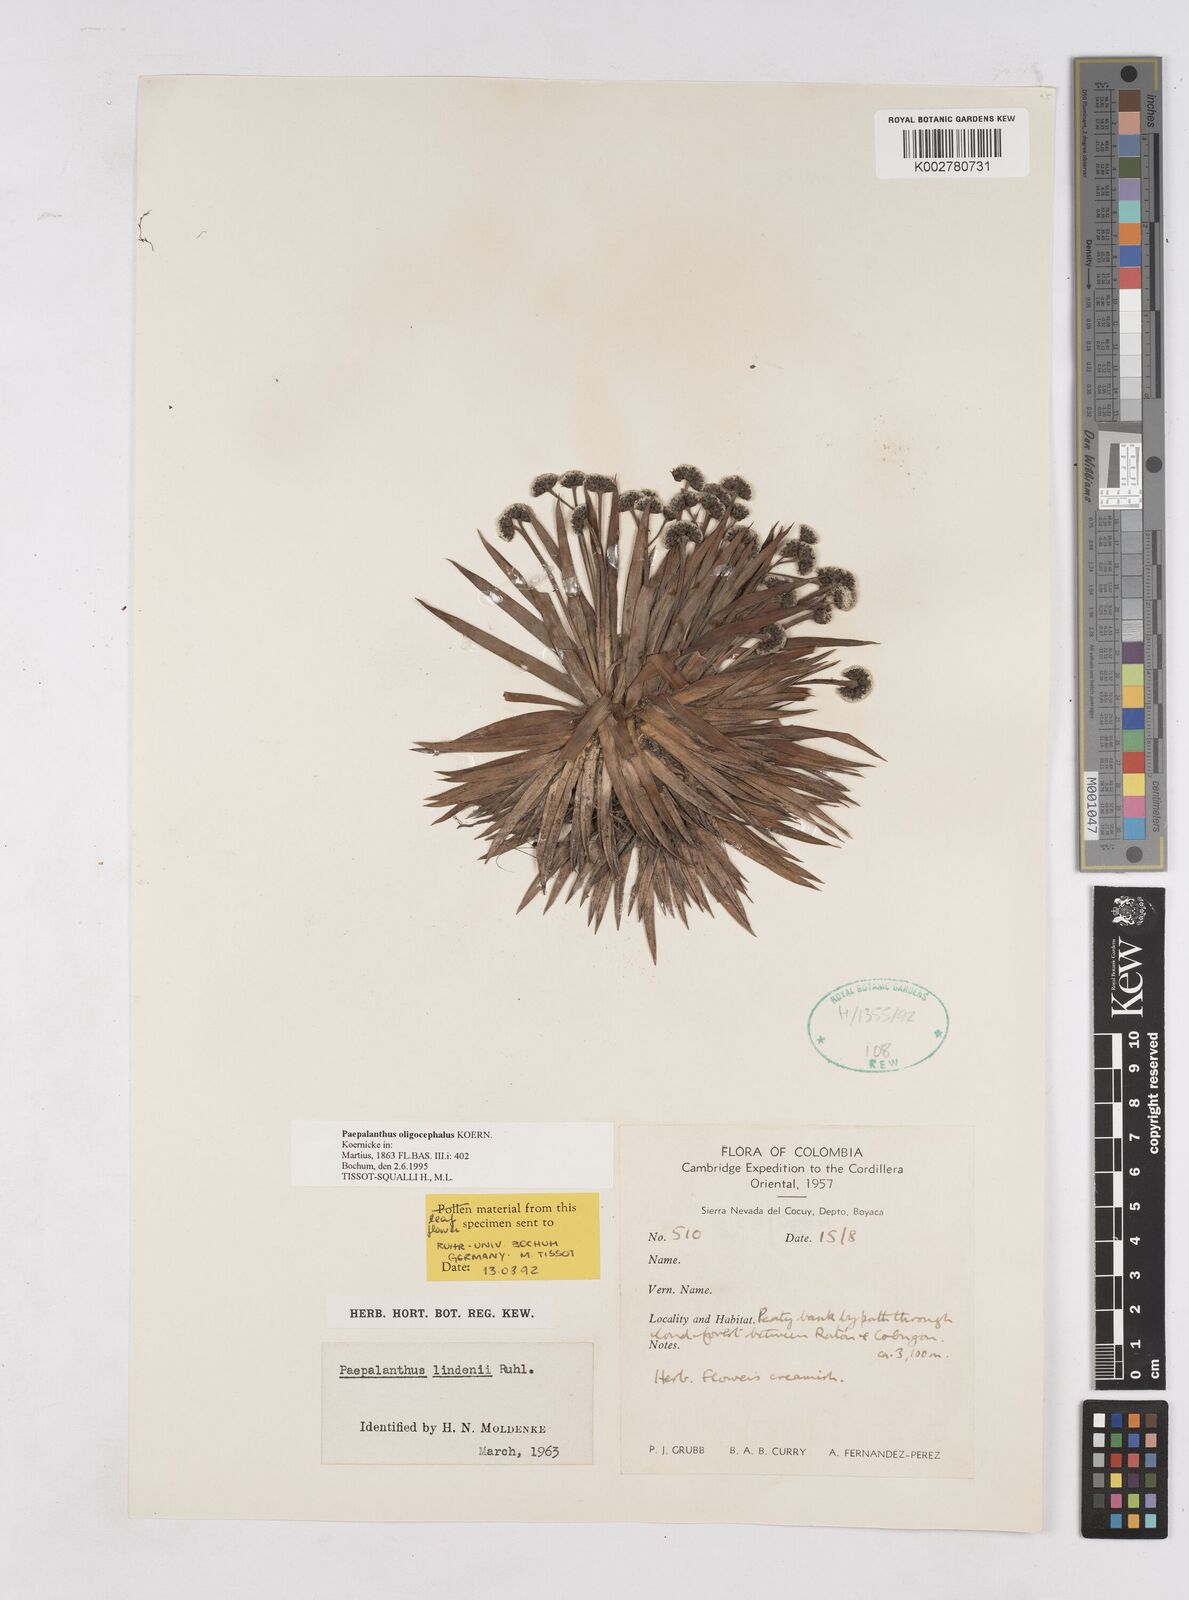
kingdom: Plantae
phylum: Tracheophyta
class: Liliopsida
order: Poales
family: Eriocaulaceae
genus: Paepalanthus
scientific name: Paepalanthus oligocephalus
